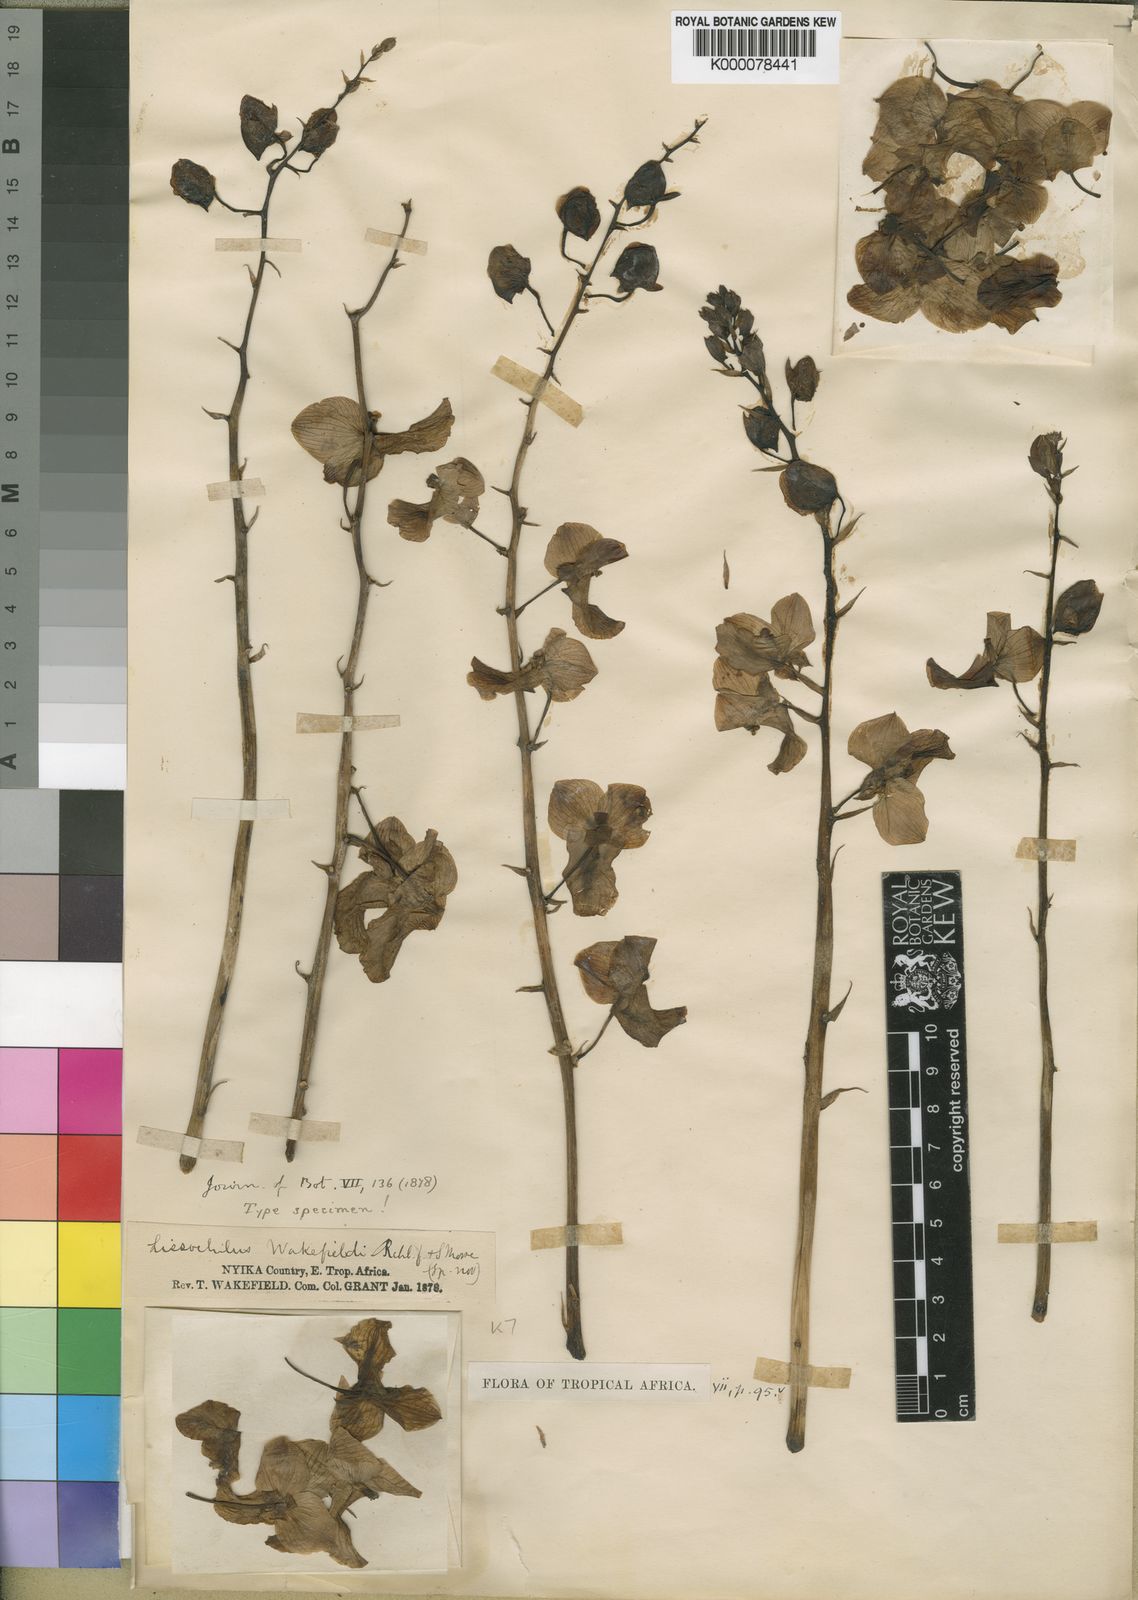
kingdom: Plantae
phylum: Tracheophyta
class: Liliopsida
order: Asparagales
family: Orchidaceae
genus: Eulophia
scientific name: Eulophia speciosa
